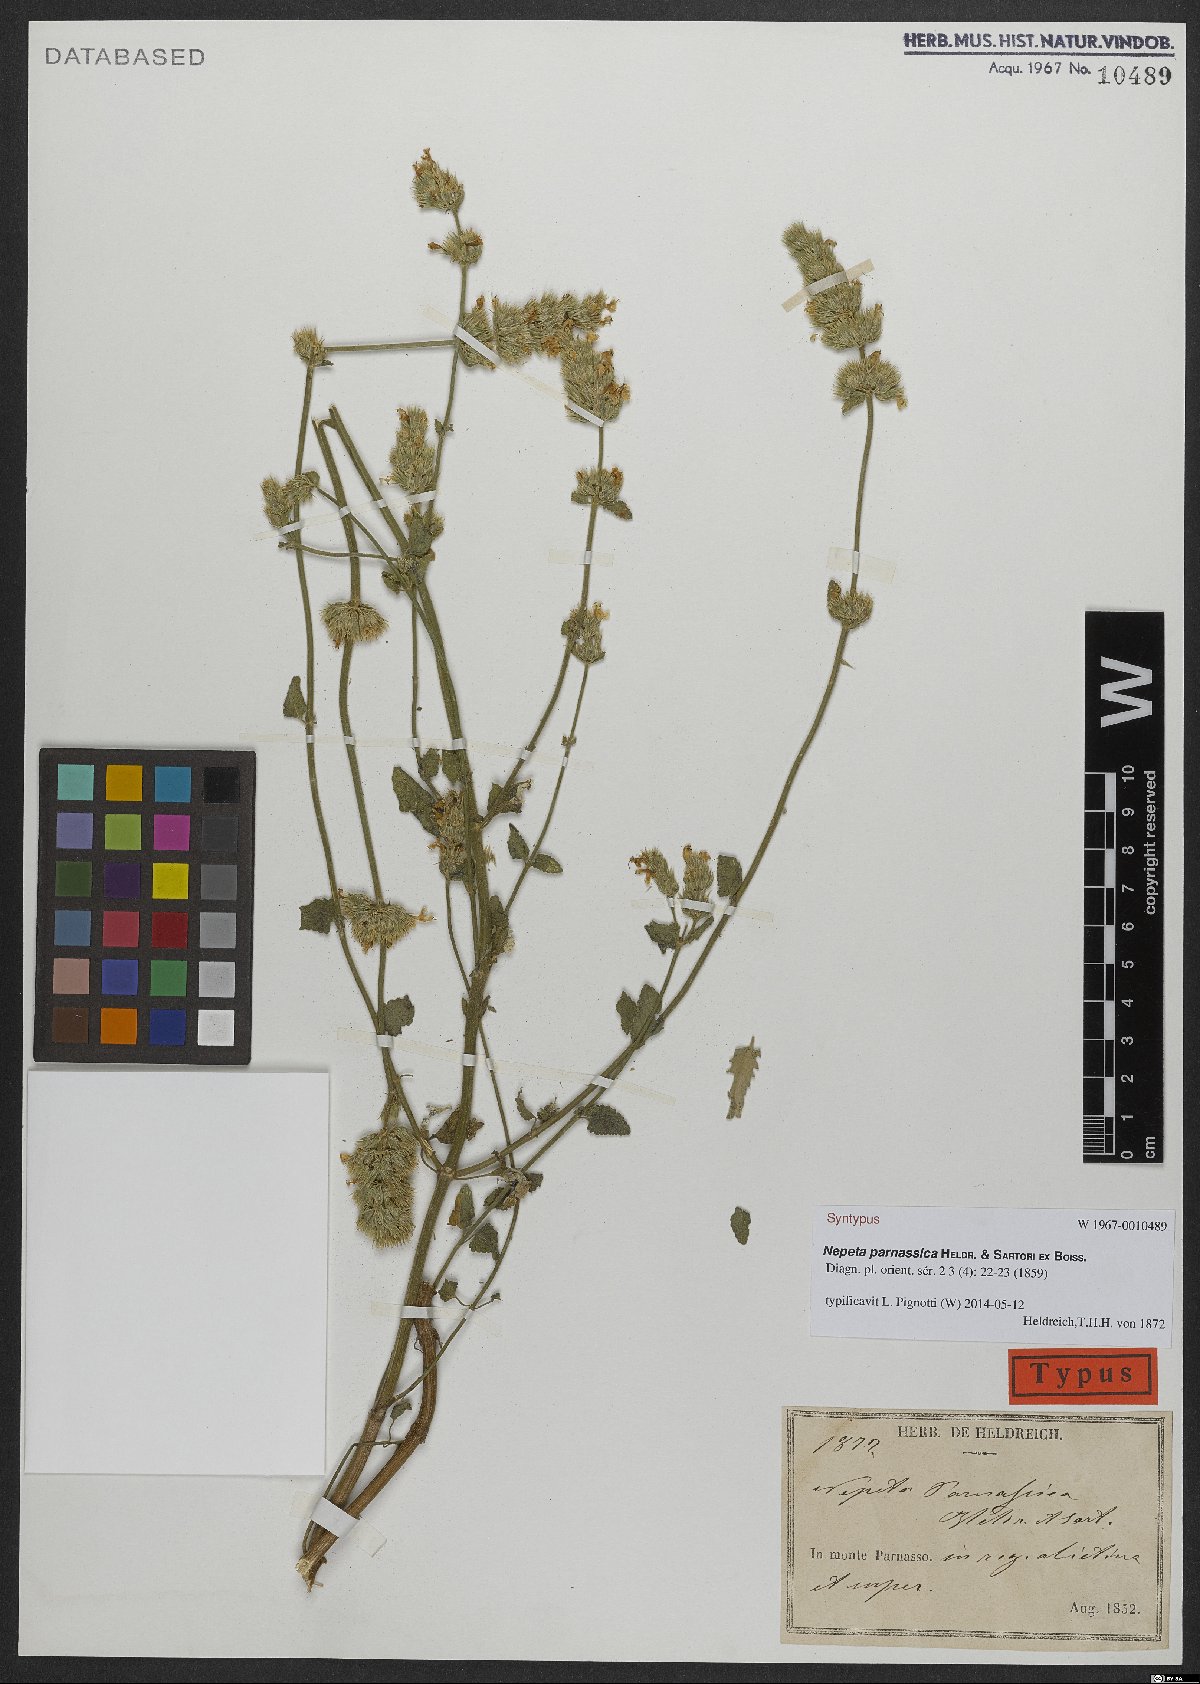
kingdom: Plantae
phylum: Tracheophyta
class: Magnoliopsida
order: Lamiales
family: Lamiaceae
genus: Nepeta
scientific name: Nepeta parnassica
